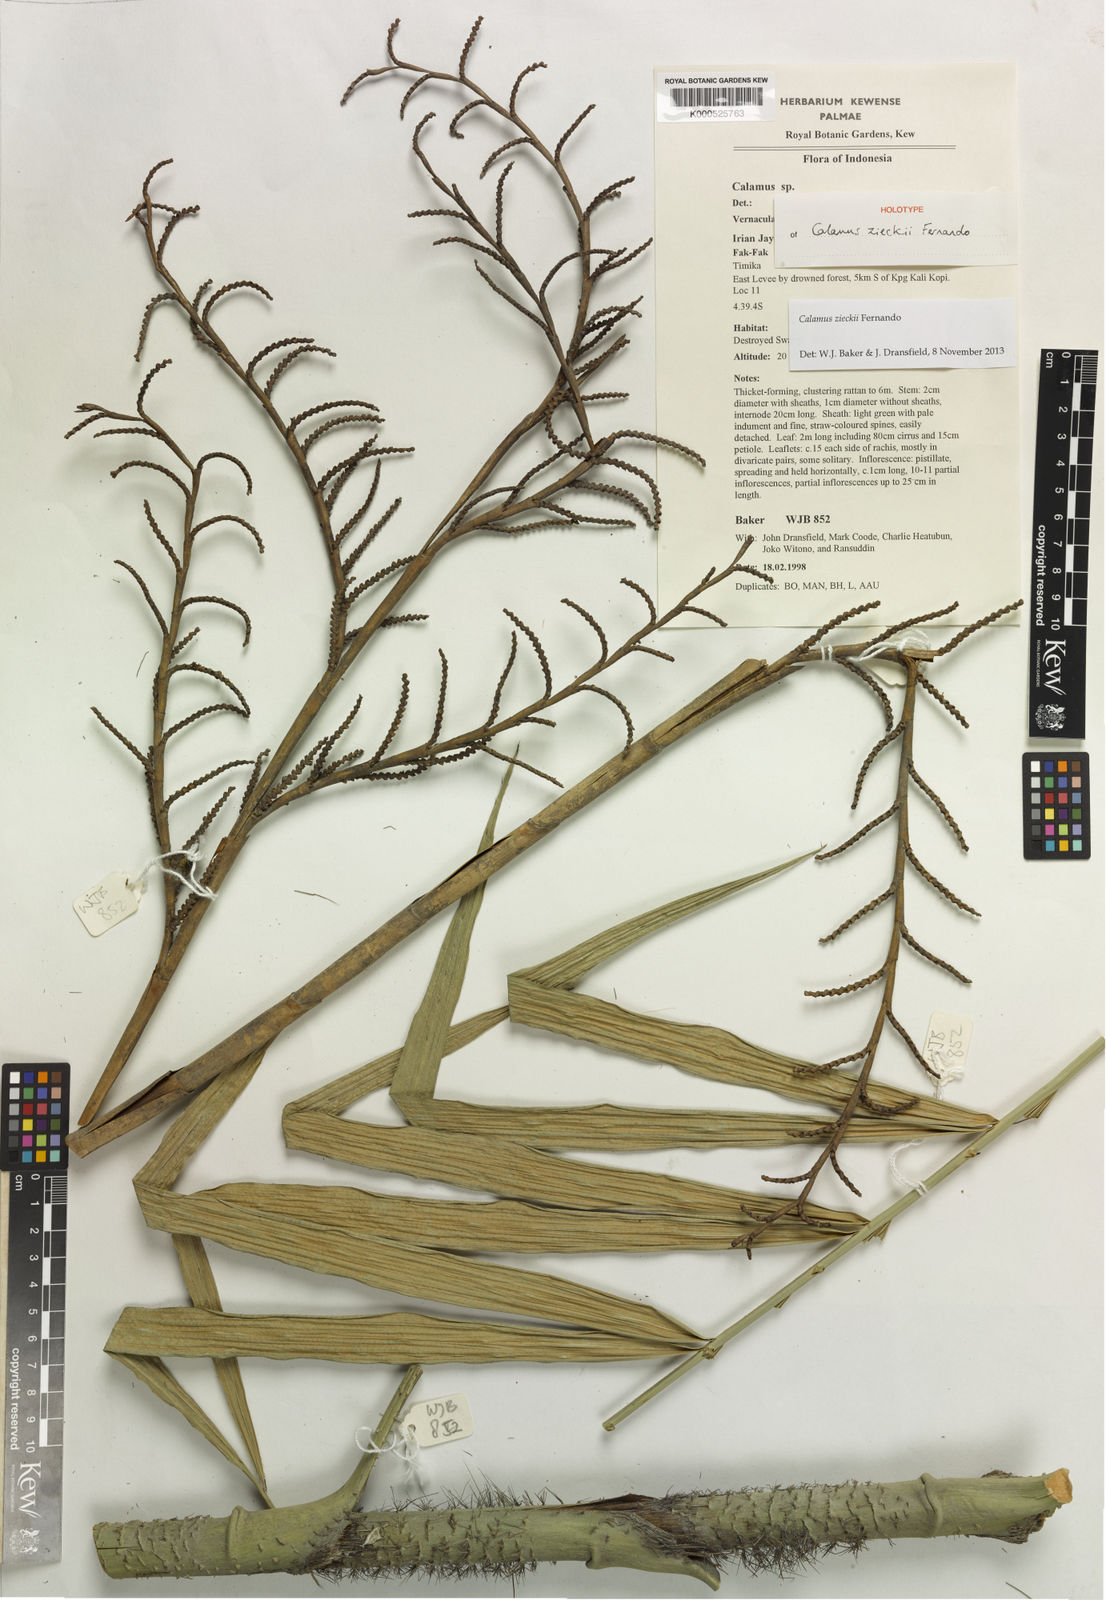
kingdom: Plantae
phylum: Tracheophyta
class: Liliopsida
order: Arecales
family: Arecaceae
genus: Calamus
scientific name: Calamus zieckii
